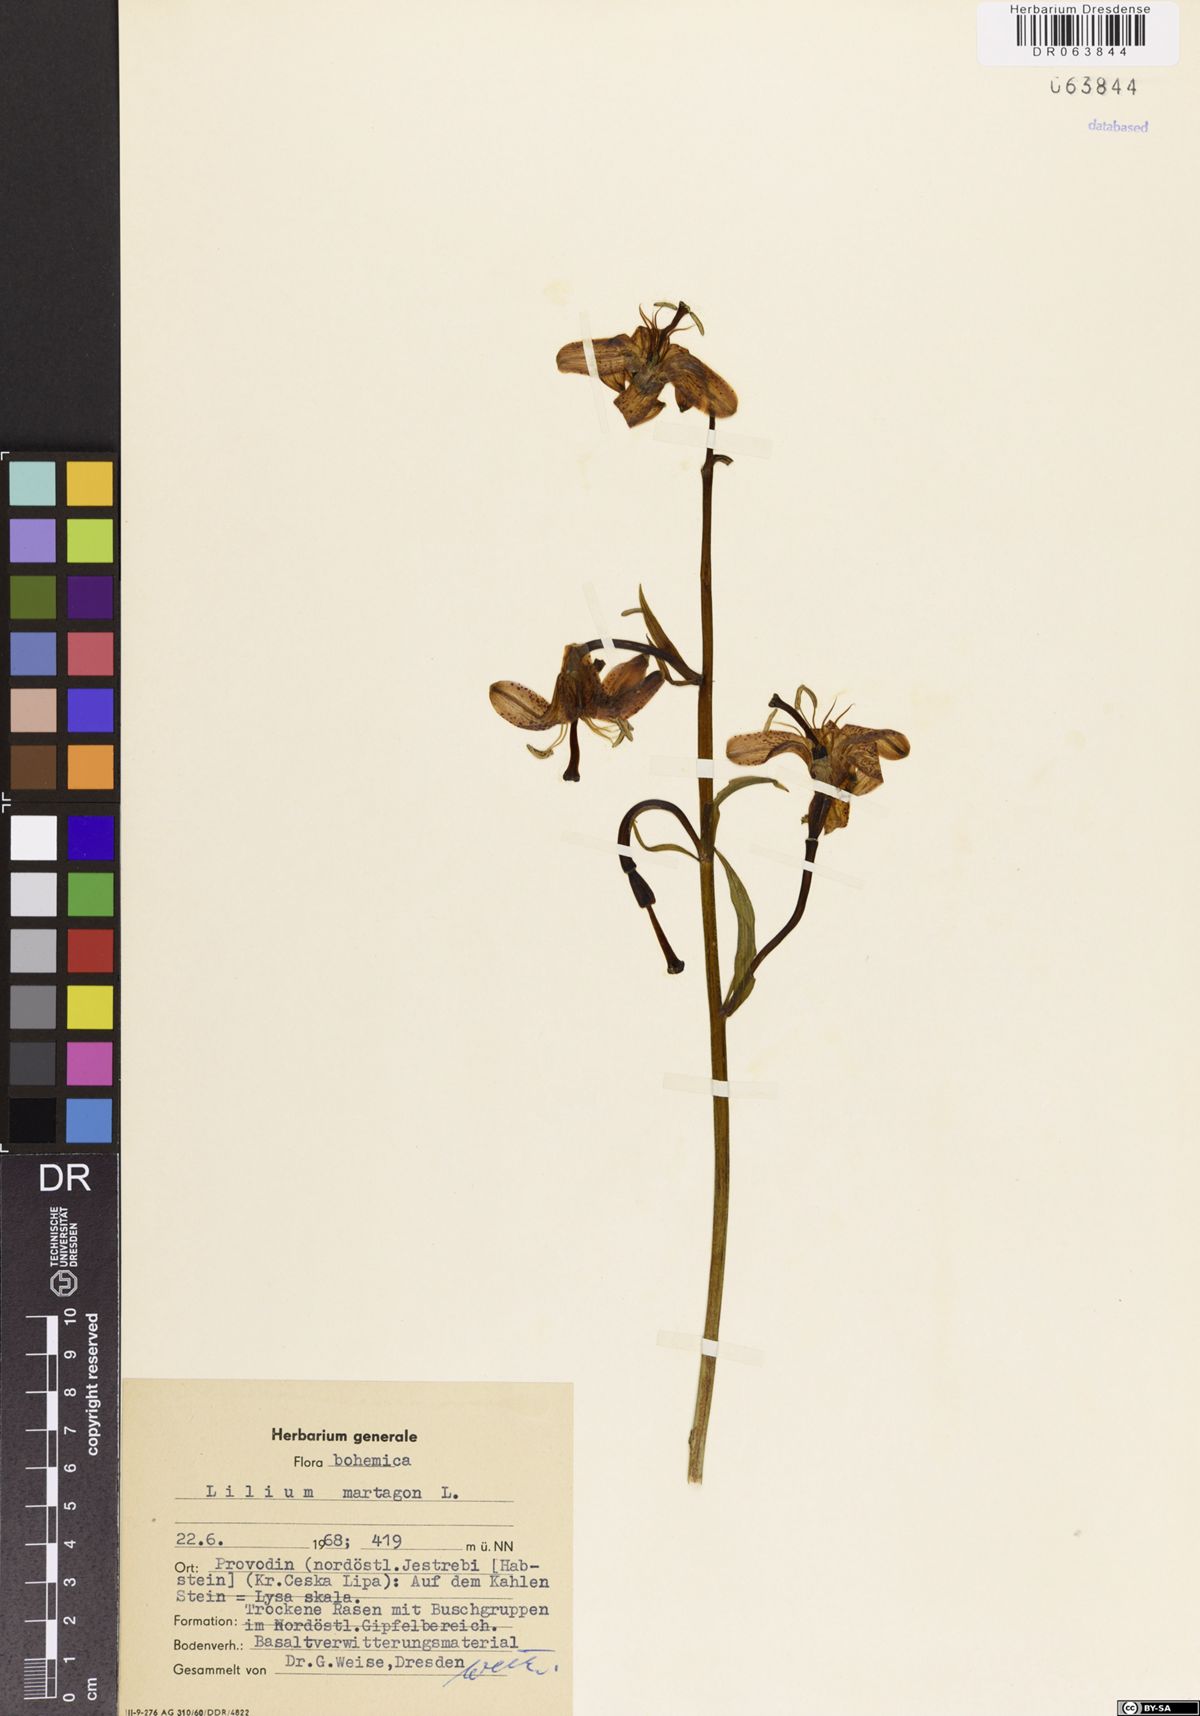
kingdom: Plantae
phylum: Tracheophyta
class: Liliopsida
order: Liliales
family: Liliaceae
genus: Lilium
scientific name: Lilium martagon
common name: Martagon lily
